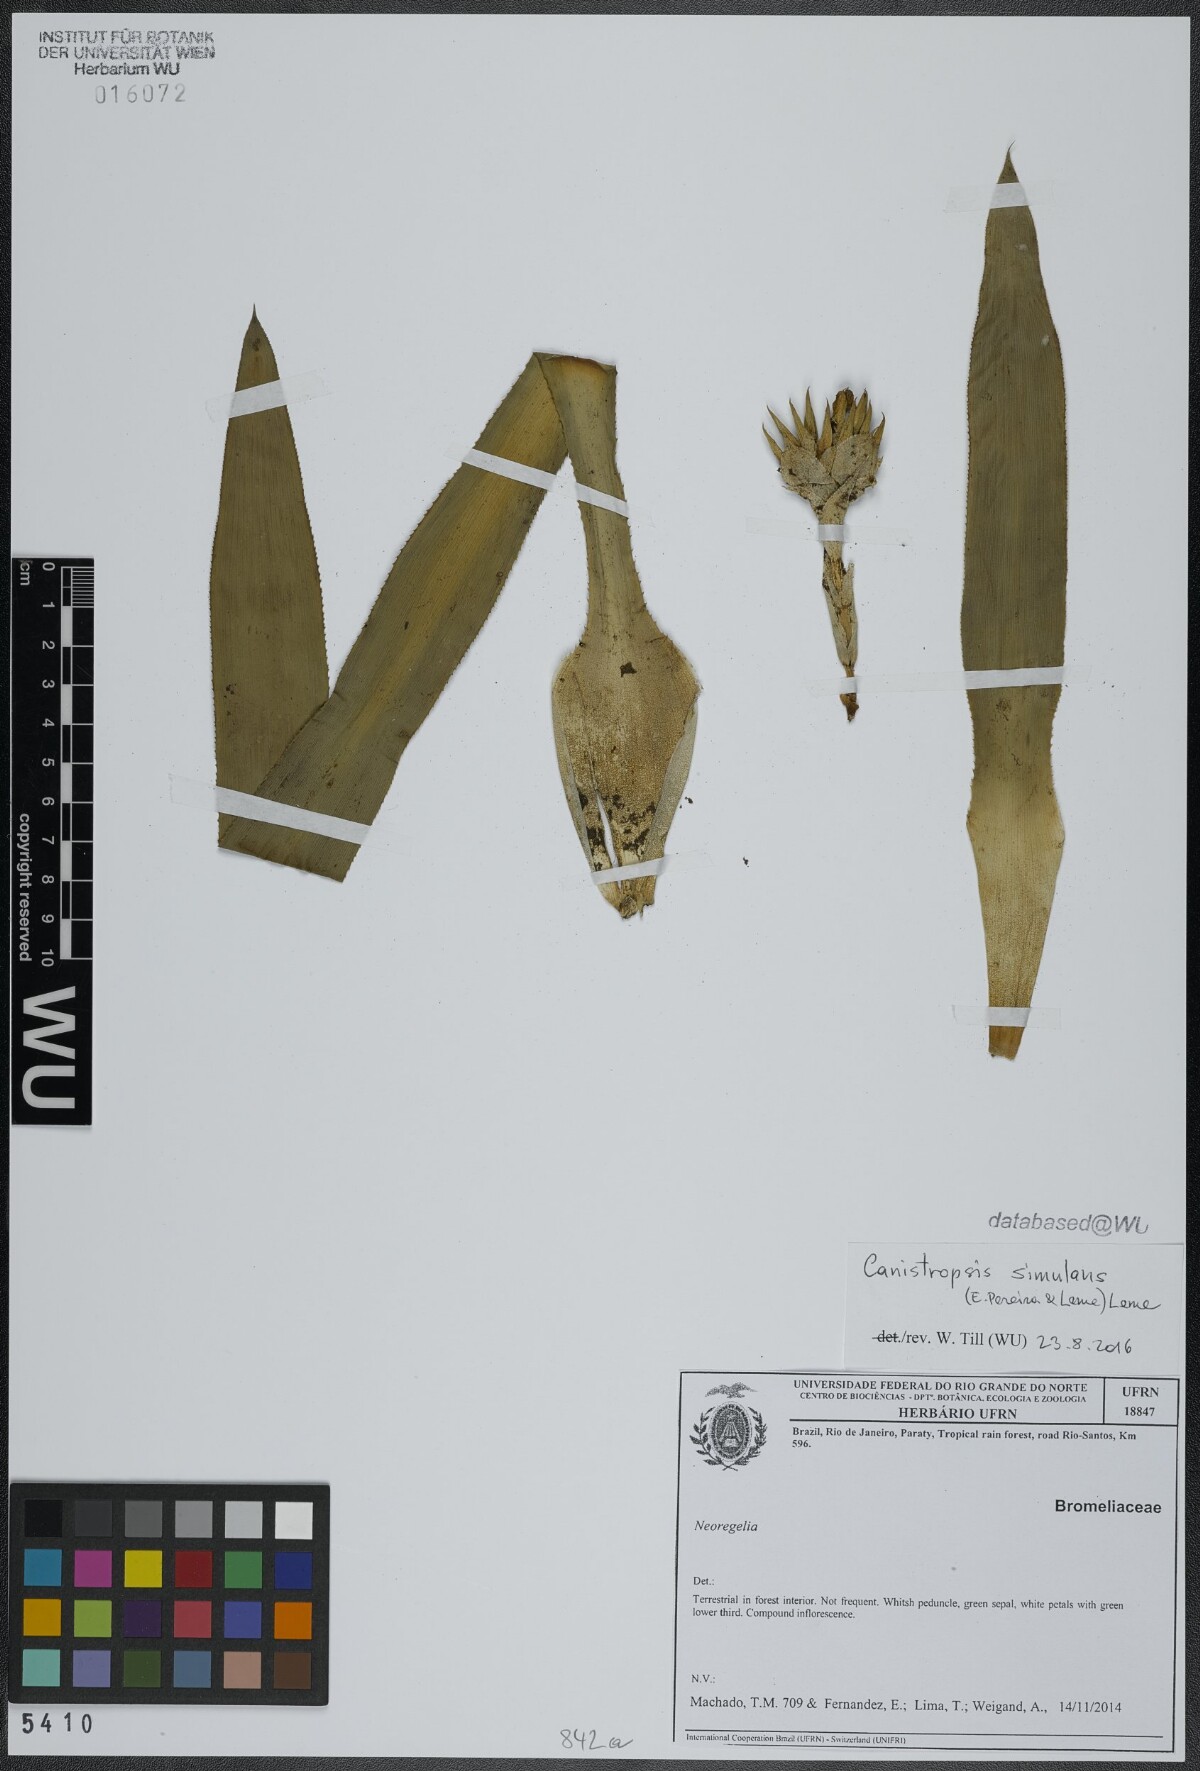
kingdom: Plantae
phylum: Tracheophyta
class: Liliopsida
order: Poales
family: Bromeliaceae
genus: Canistropsis
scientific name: Canistropsis burchellii
